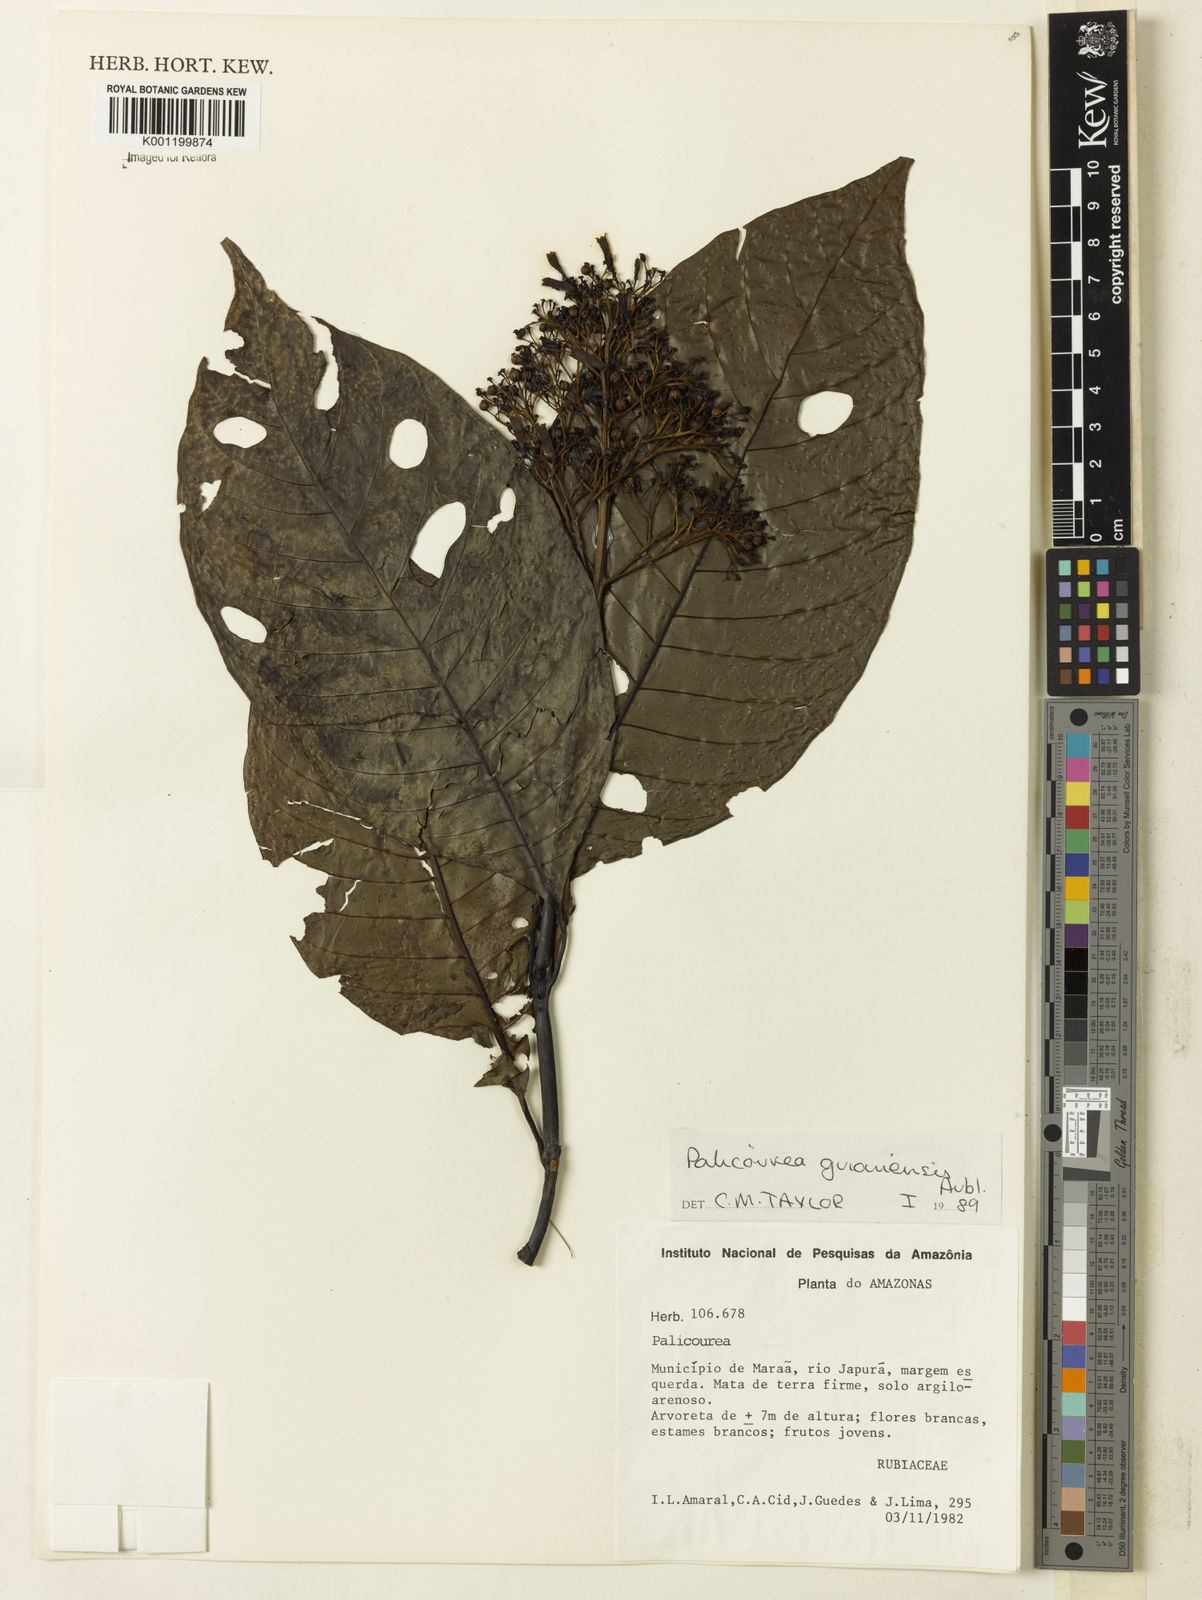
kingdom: Plantae
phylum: Tracheophyta
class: Magnoliopsida
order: Gentianales
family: Rubiaceae
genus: Palicourea
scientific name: Palicourea guianensis
